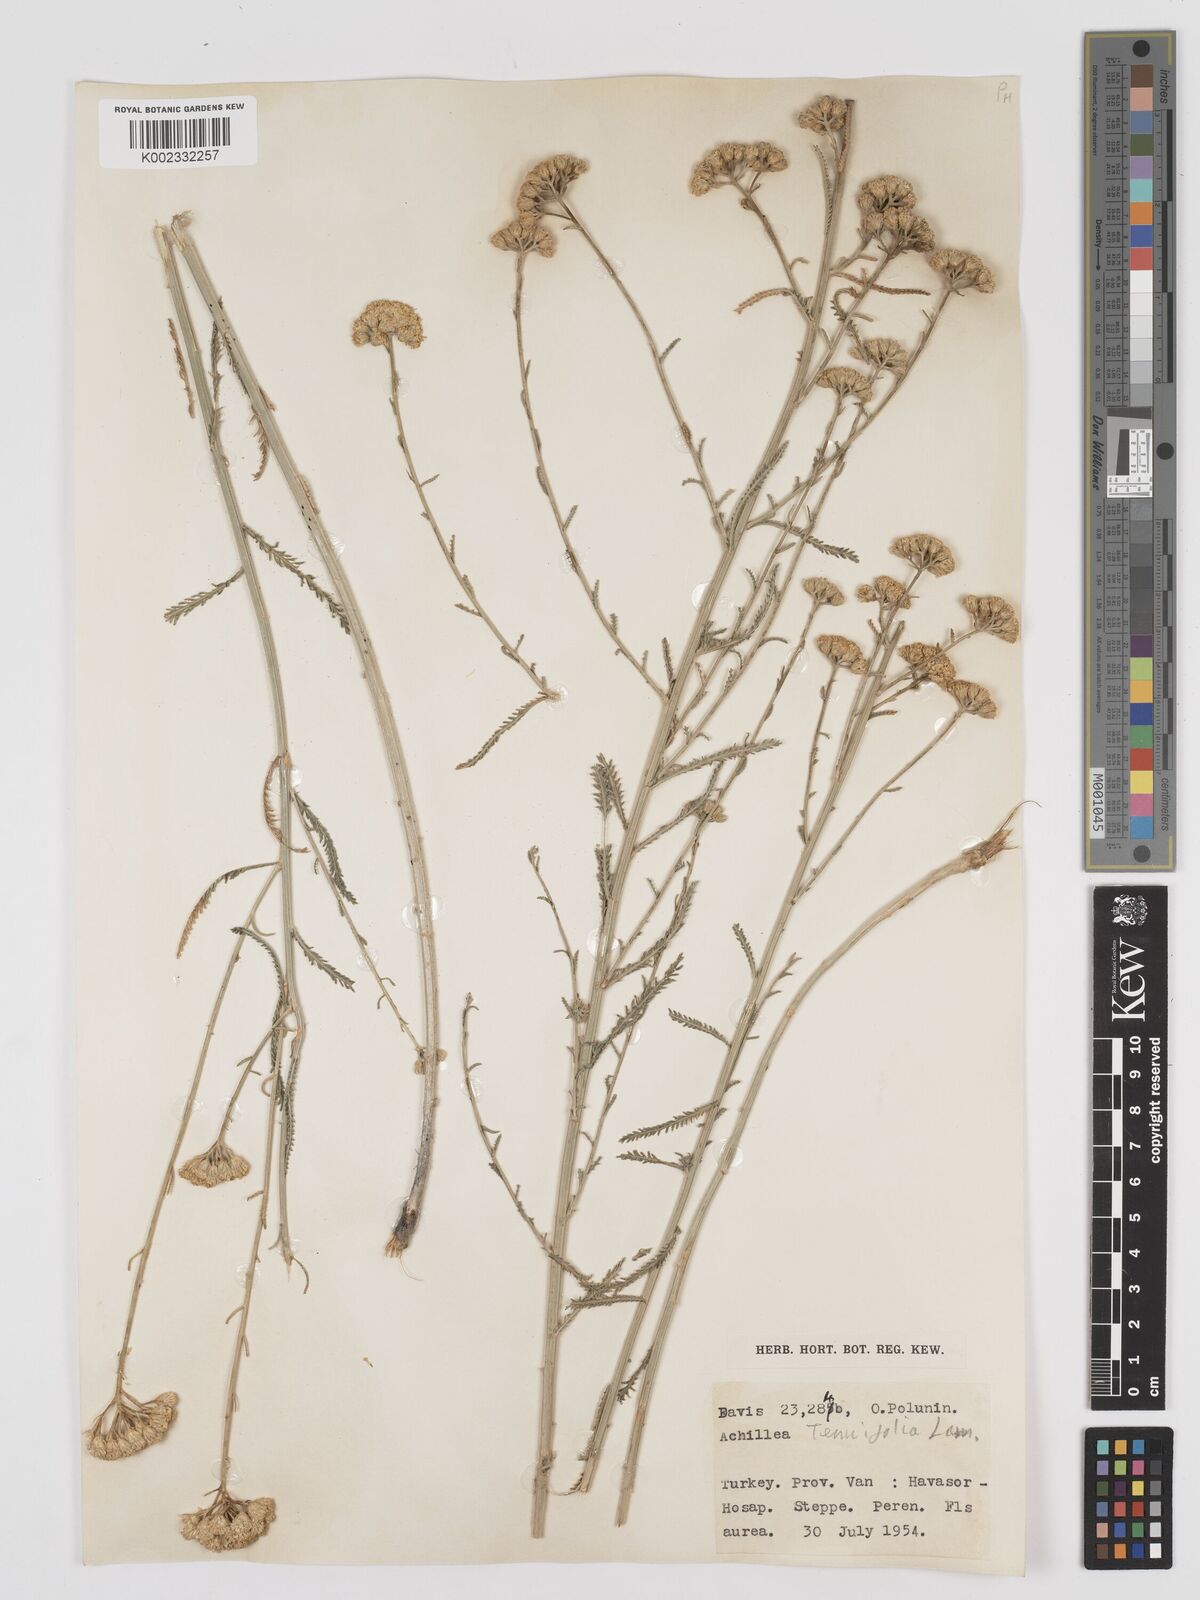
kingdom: Plantae
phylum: Tracheophyta
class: Magnoliopsida
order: Asterales
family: Asteraceae
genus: Achillea
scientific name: Achillea tenuifolia
